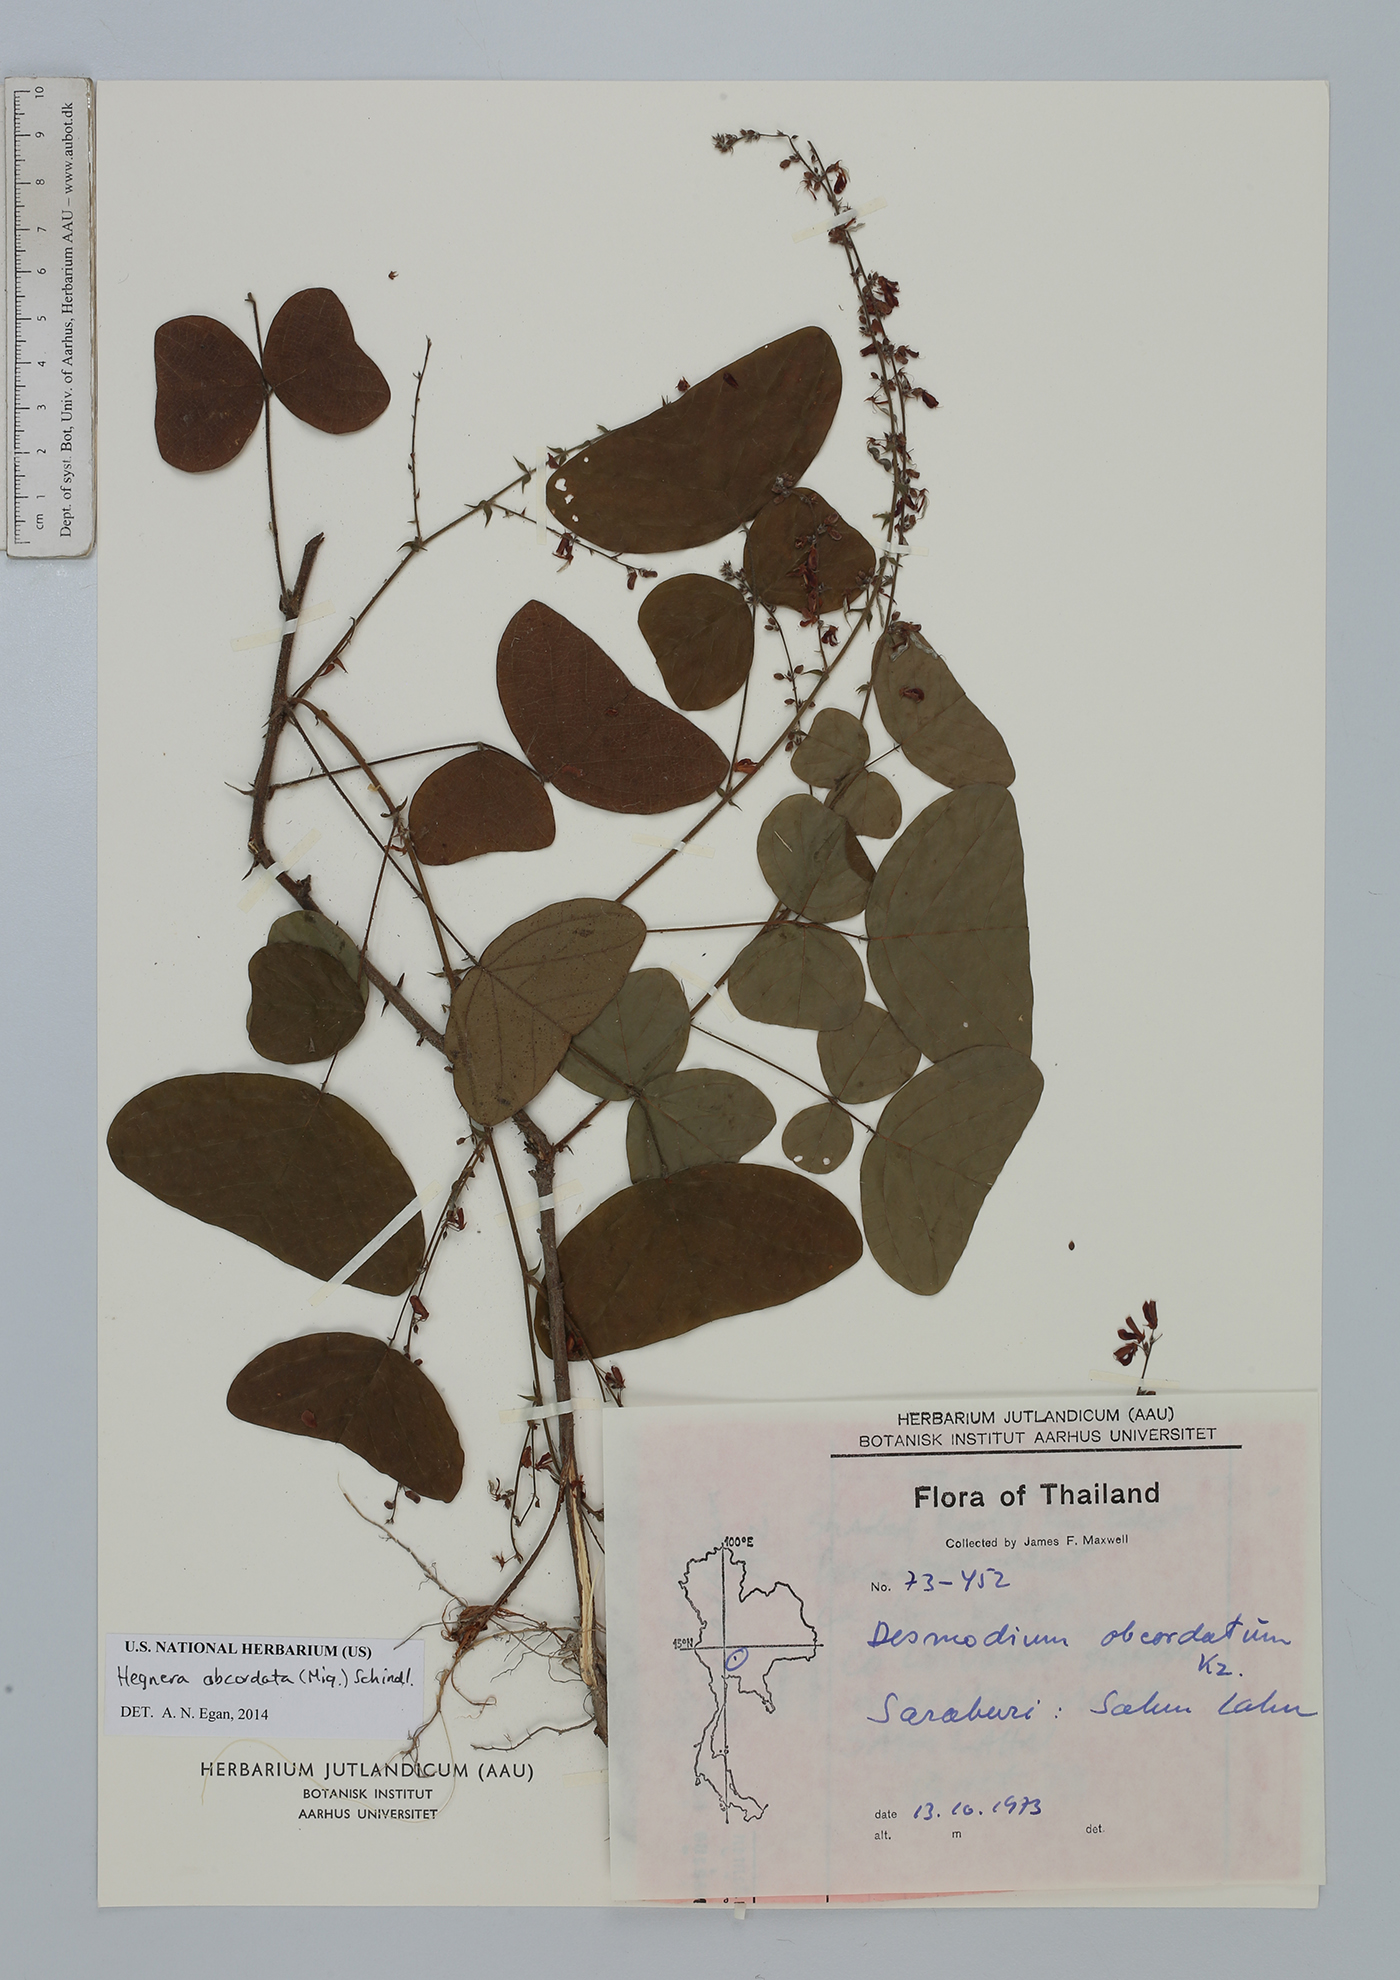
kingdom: Plantae
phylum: Tracheophyta
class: Magnoliopsida
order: Fabales
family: Fabaceae
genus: Hegnera
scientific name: Hegnera obcordata
